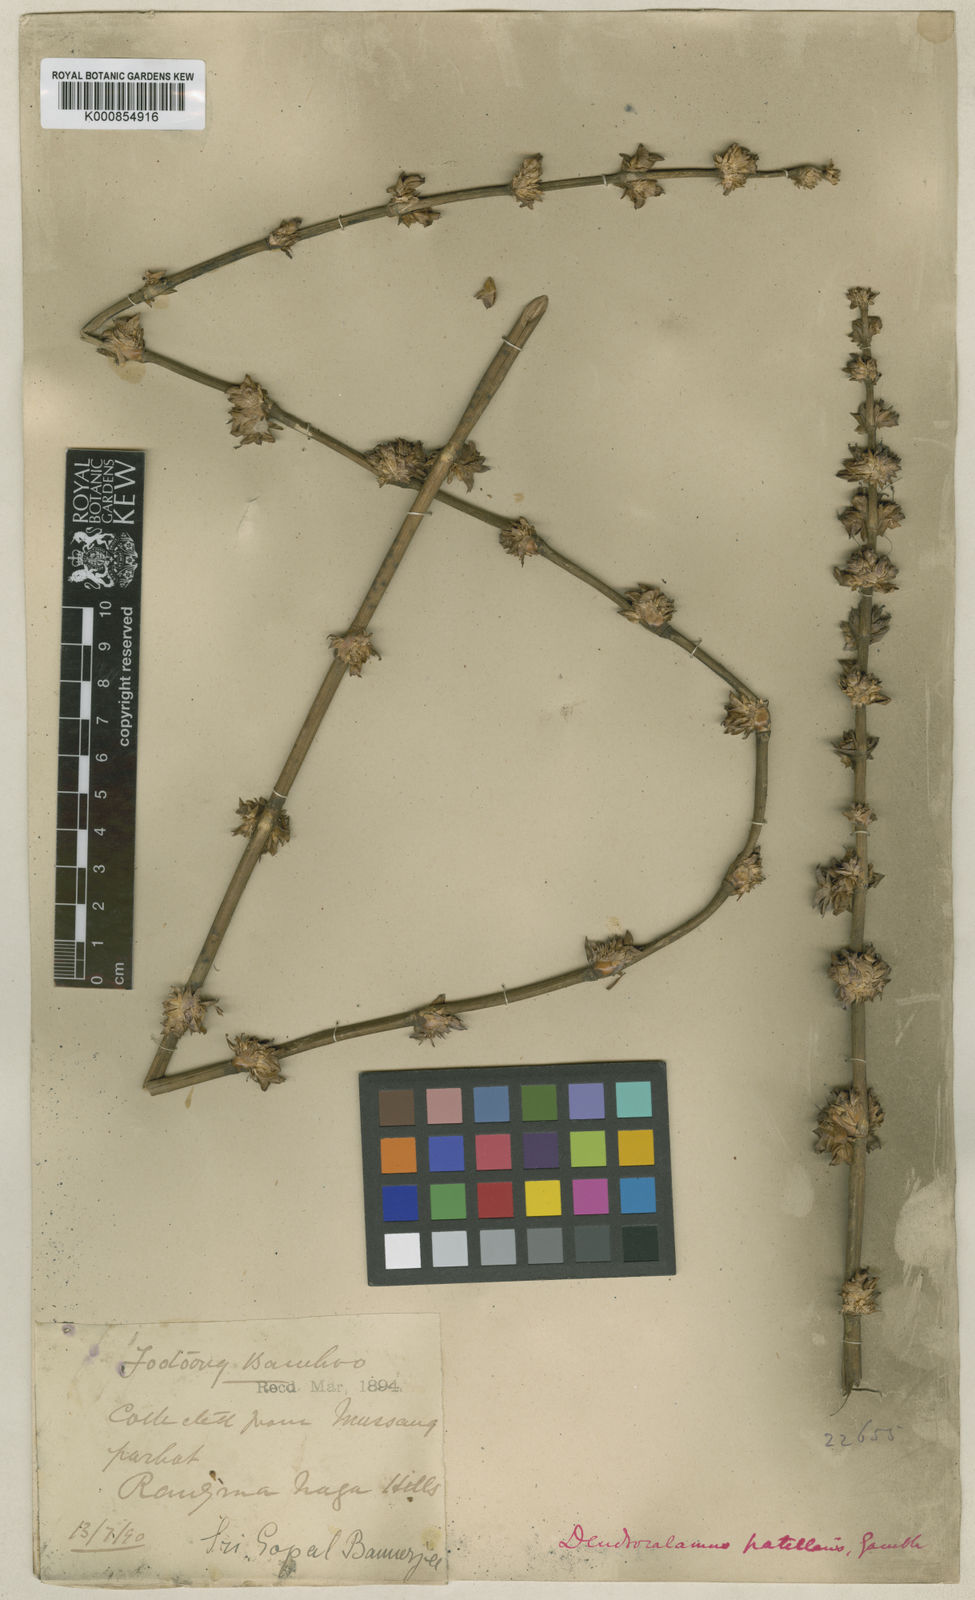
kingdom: Plantae
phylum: Tracheophyta
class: Liliopsida
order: Poales
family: Poaceae
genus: Dendrocalamus
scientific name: Dendrocalamus hamiltonii
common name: Tama bamboo
